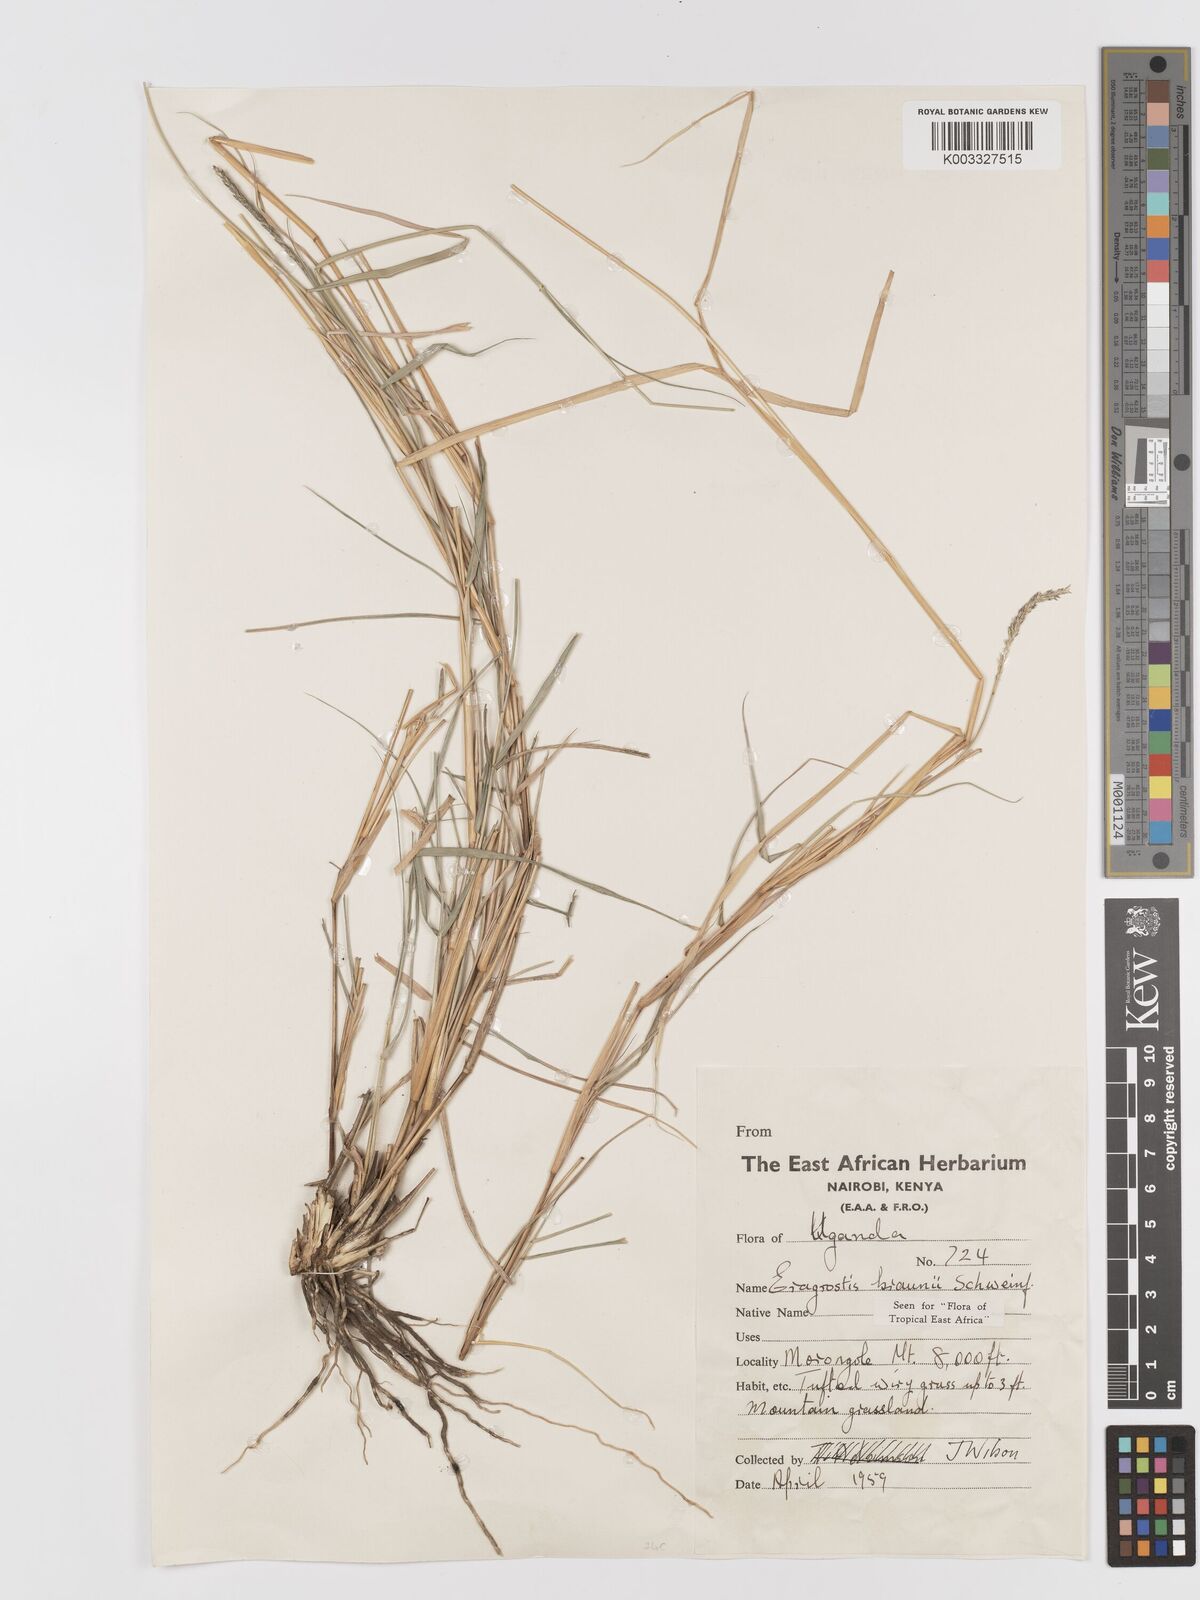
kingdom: Plantae
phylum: Tracheophyta
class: Liliopsida
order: Poales
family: Poaceae
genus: Eragrostis
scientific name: Eragrostis braunii
